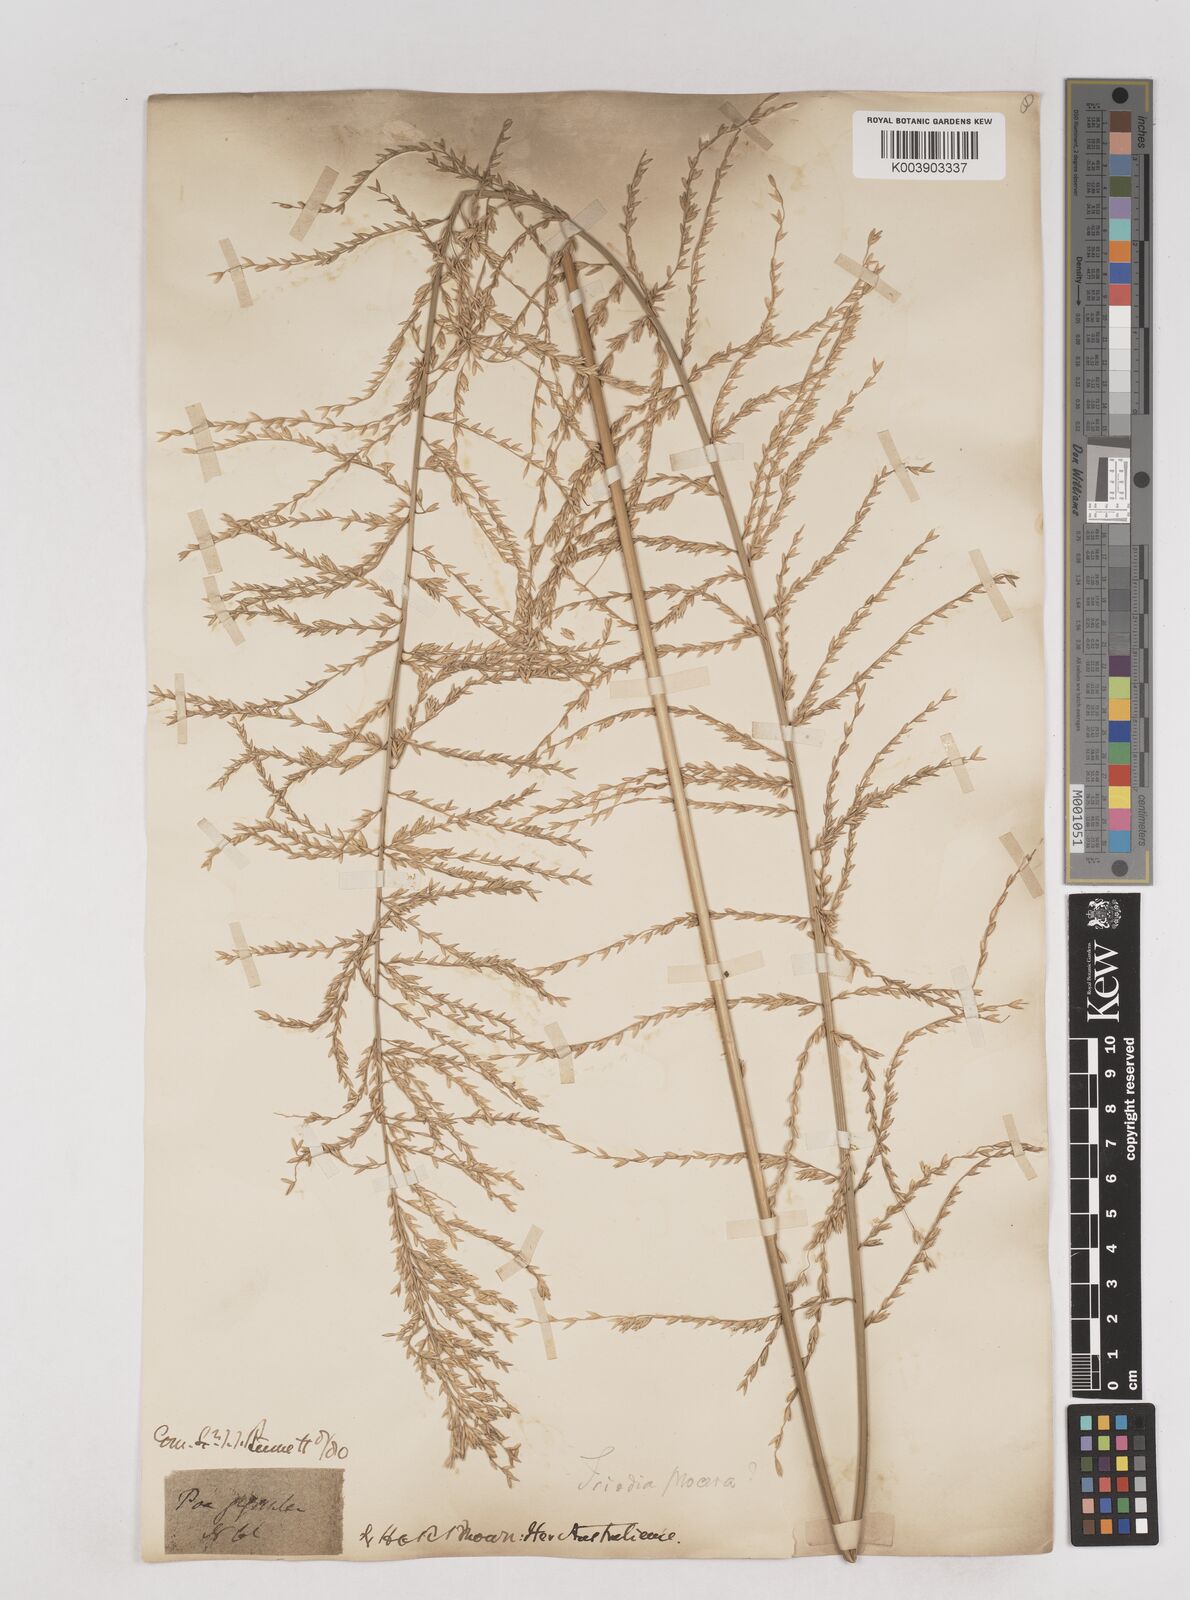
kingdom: Plantae
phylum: Tracheophyta
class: Liliopsida
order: Poales
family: Poaceae
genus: Triodia
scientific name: Triodia procera
